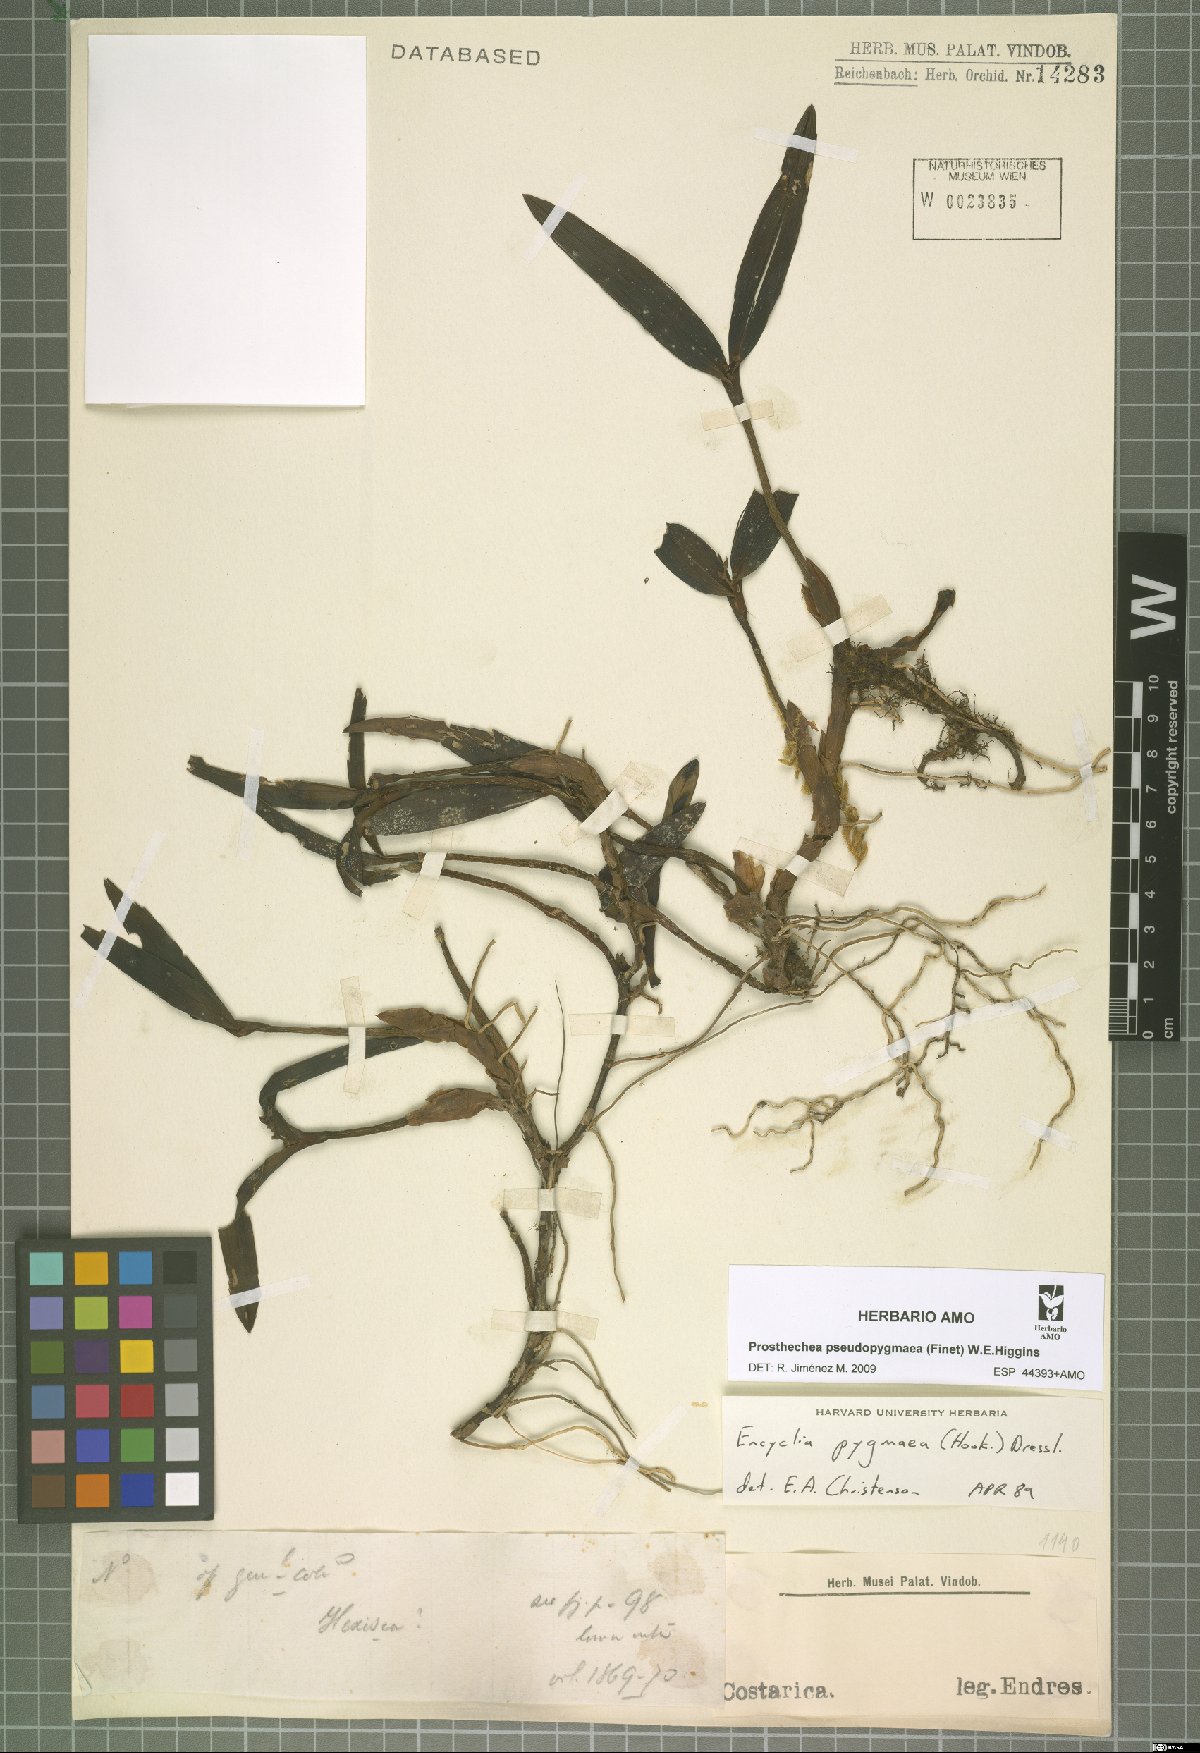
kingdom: Plantae
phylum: Tracheophyta
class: Liliopsida
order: Asparagales
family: Orchidaceae
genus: Prosthechea
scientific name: Prosthechea pseudopygmaea
